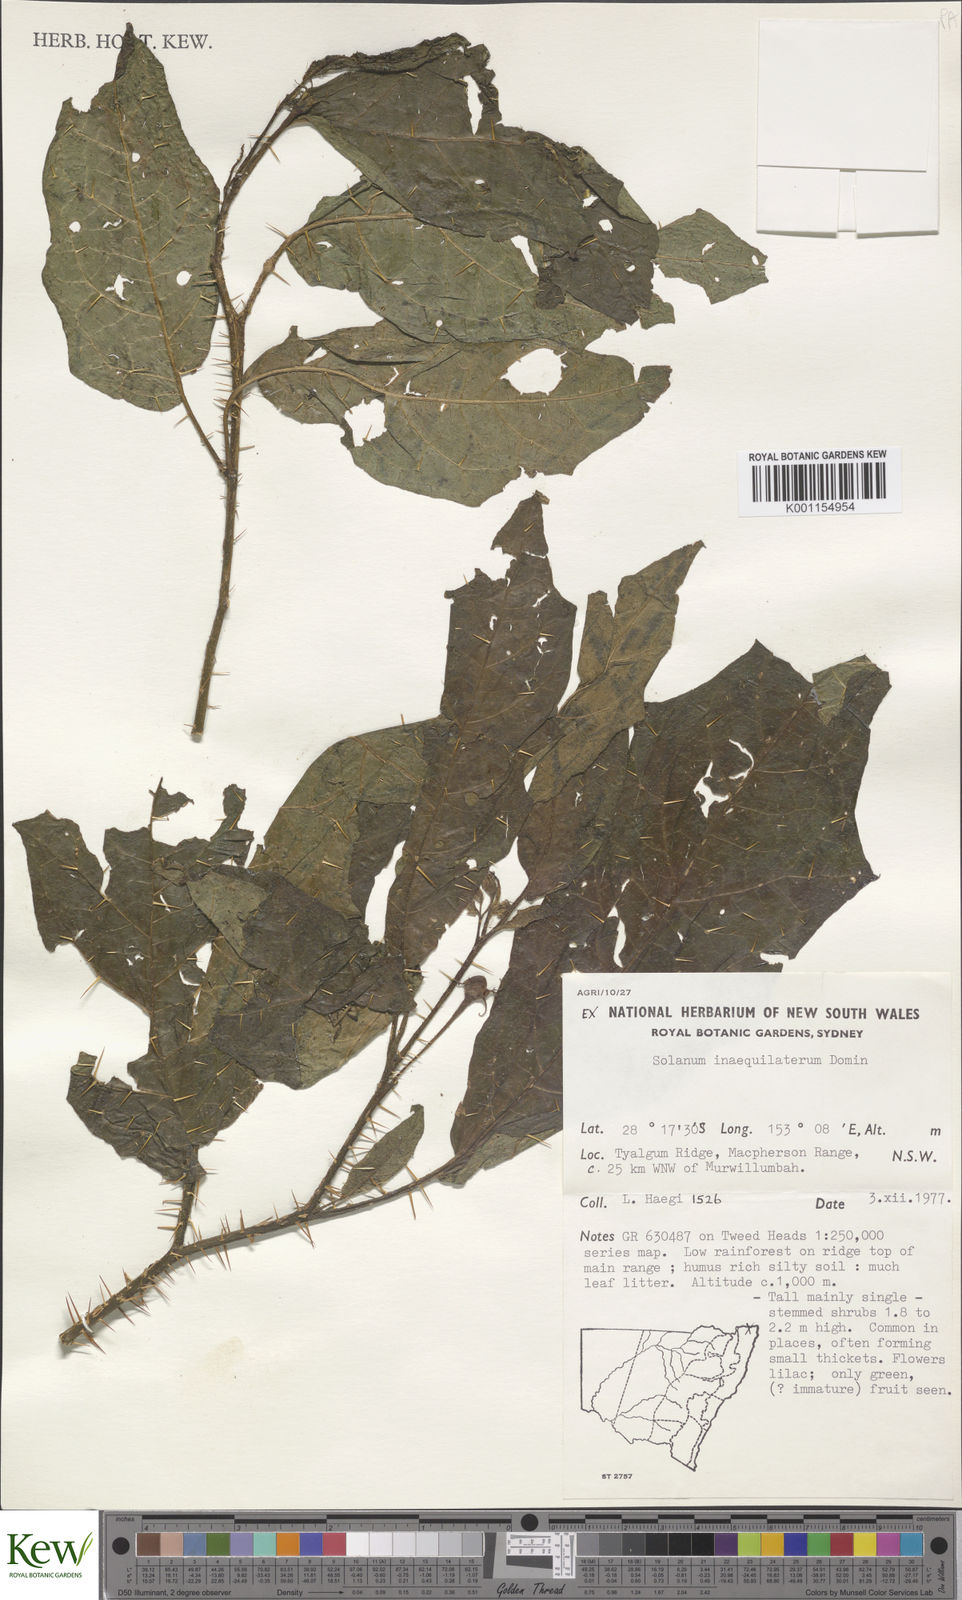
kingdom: Plantae
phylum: Tracheophyta
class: Magnoliopsida
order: Solanales
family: Solanaceae
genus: Solanum
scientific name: Solanum inaequilaterum
